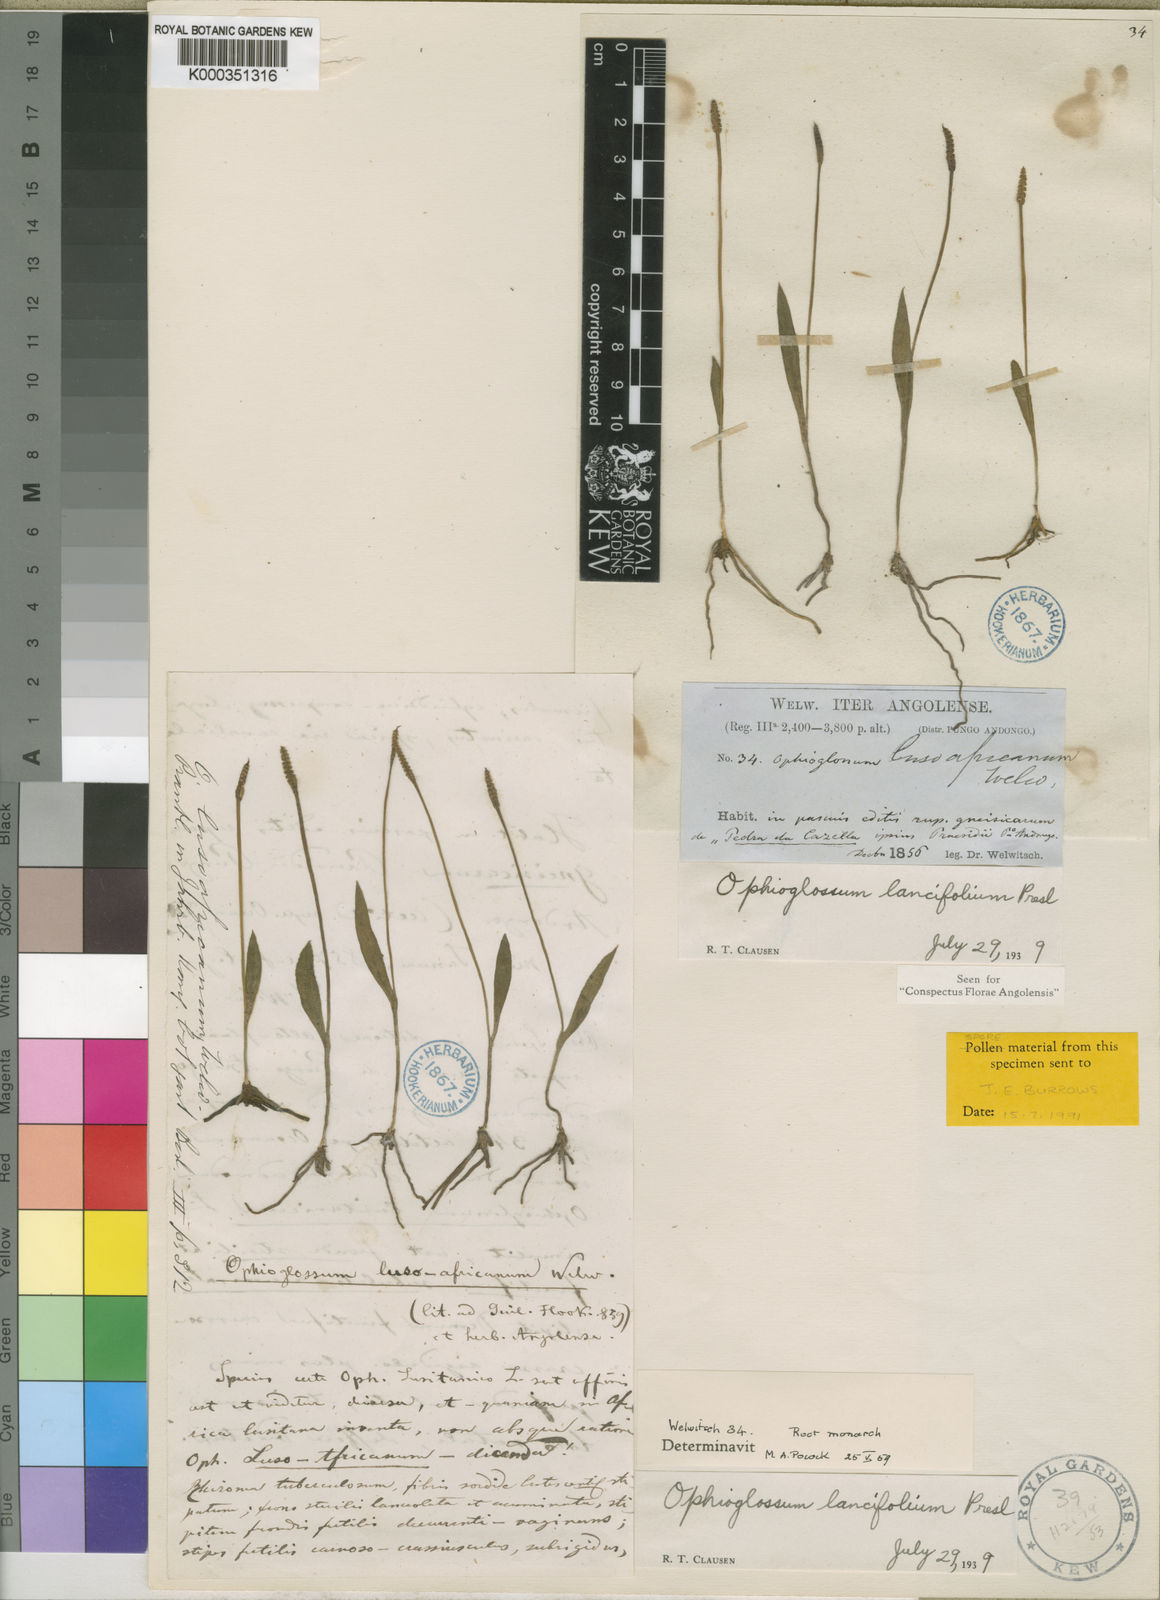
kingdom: Plantae
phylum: Tracheophyta
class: Polypodiopsida
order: Ophioglossales
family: Ophioglossaceae
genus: Ophioglossum
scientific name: Ophioglossum lusoafricanum
